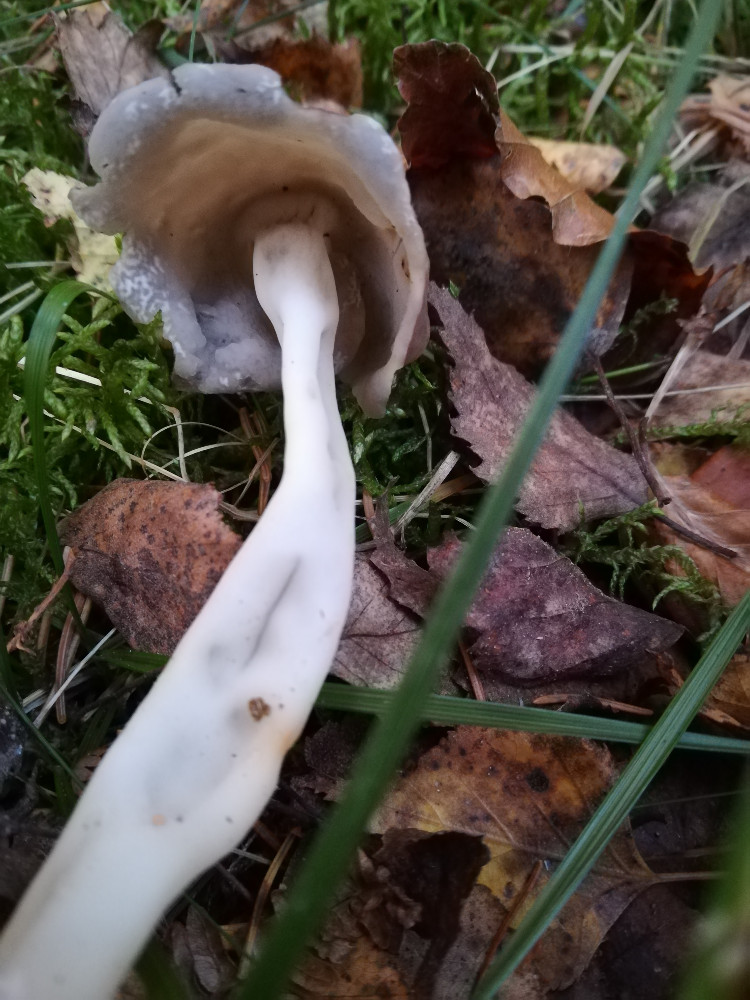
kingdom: Fungi
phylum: Ascomycota
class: Pezizomycetes
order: Pezizales
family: Helvellaceae
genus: Helvella
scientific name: Helvella
